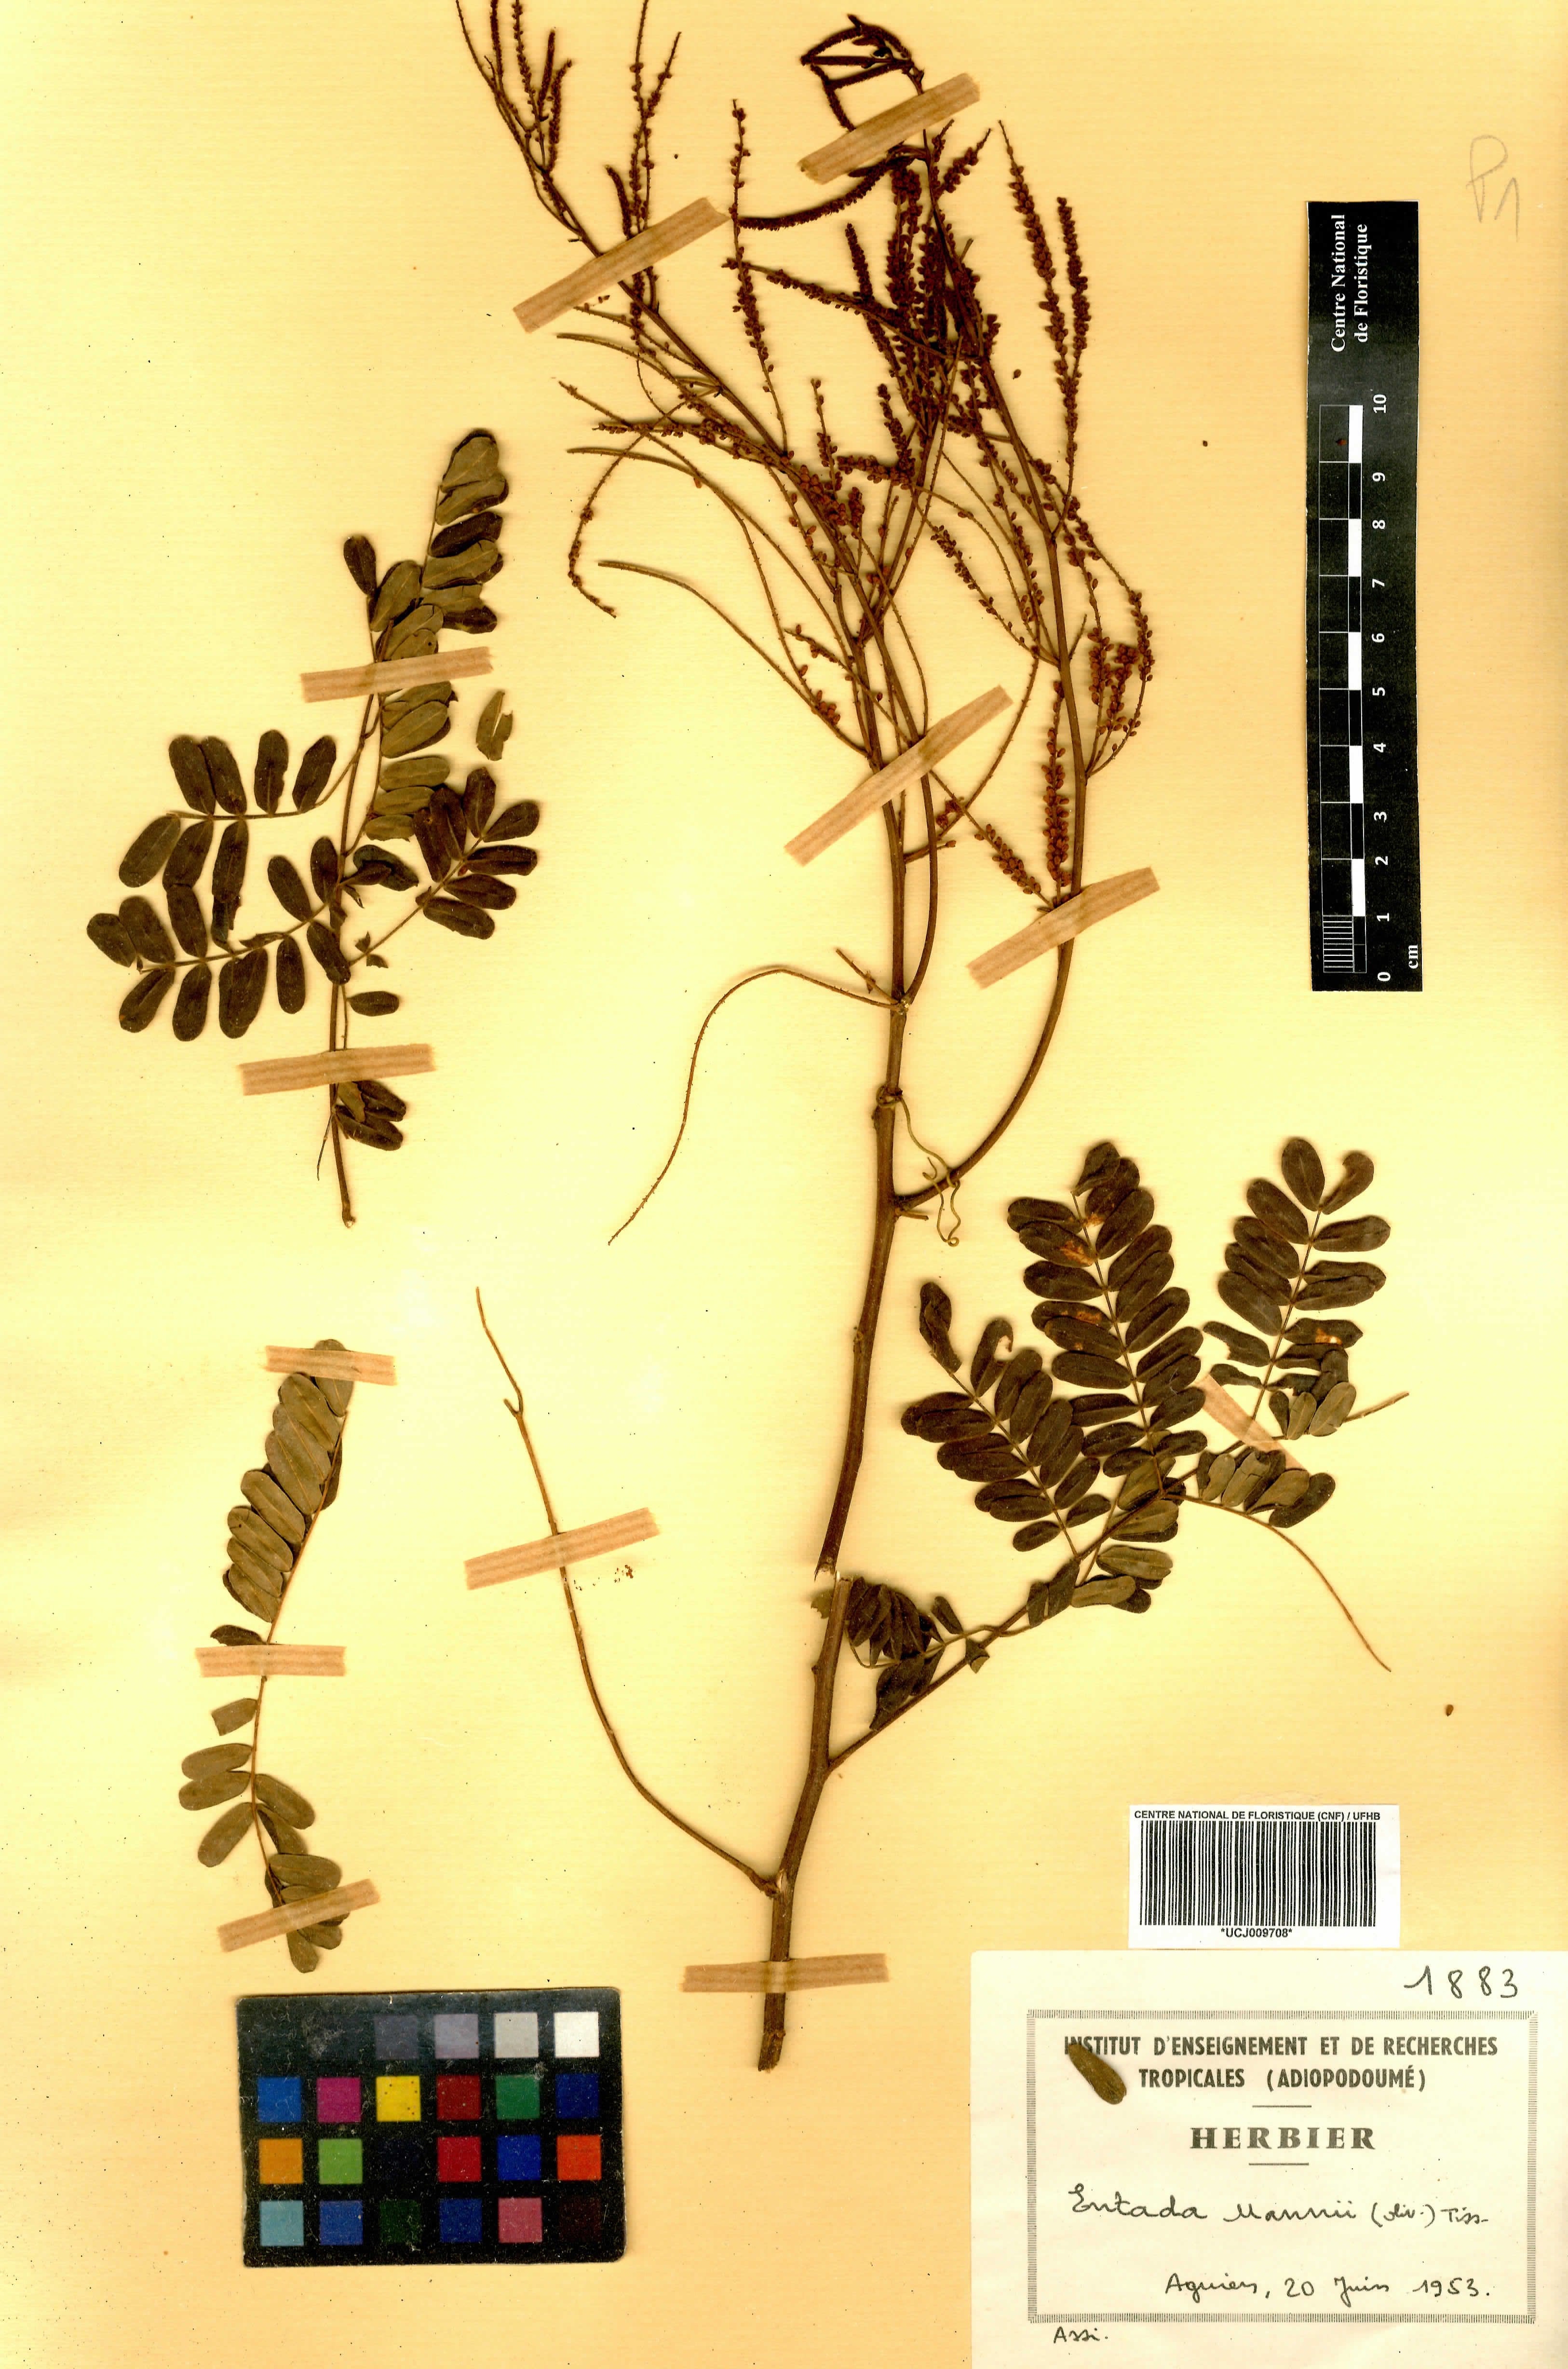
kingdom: Plantae
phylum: Tracheophyta
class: Magnoliopsida
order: Fabales
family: Fabaceae
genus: Entada
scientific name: Entada mannii
